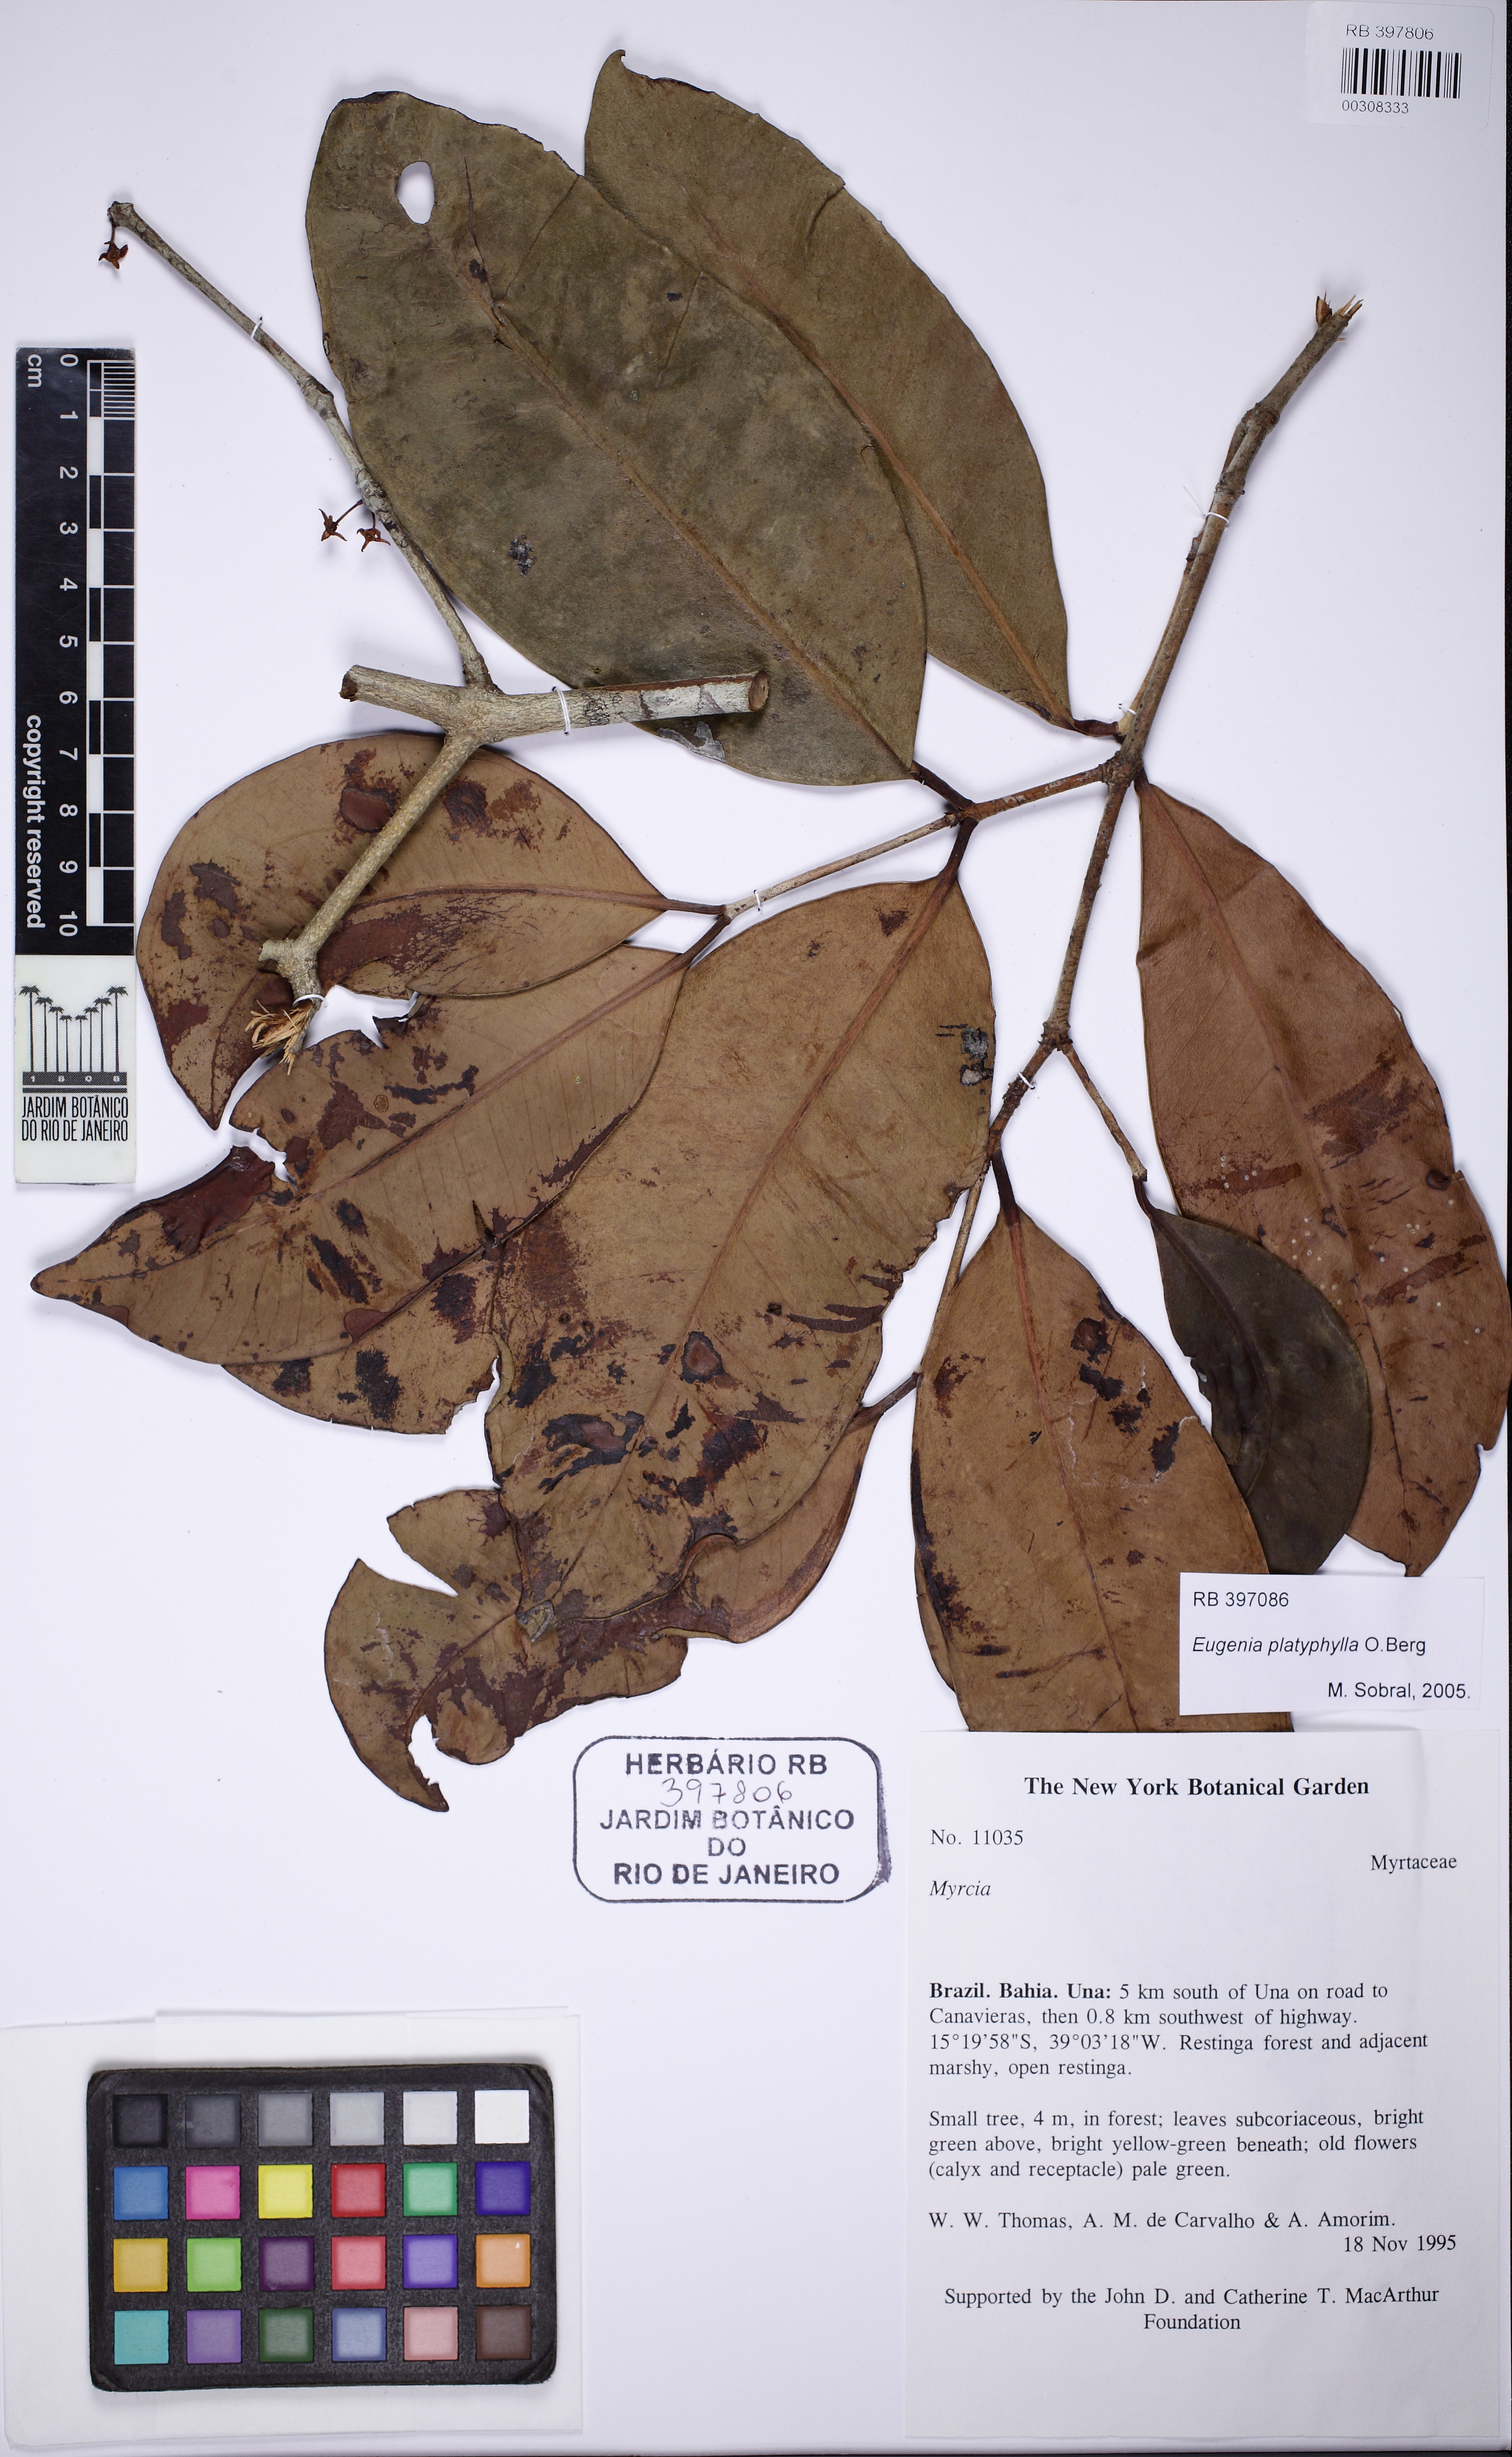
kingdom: Plantae
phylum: Tracheophyta
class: Magnoliopsida
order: Myrtales
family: Myrtaceae
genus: Eugenia
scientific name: Eugenia platyphylla
